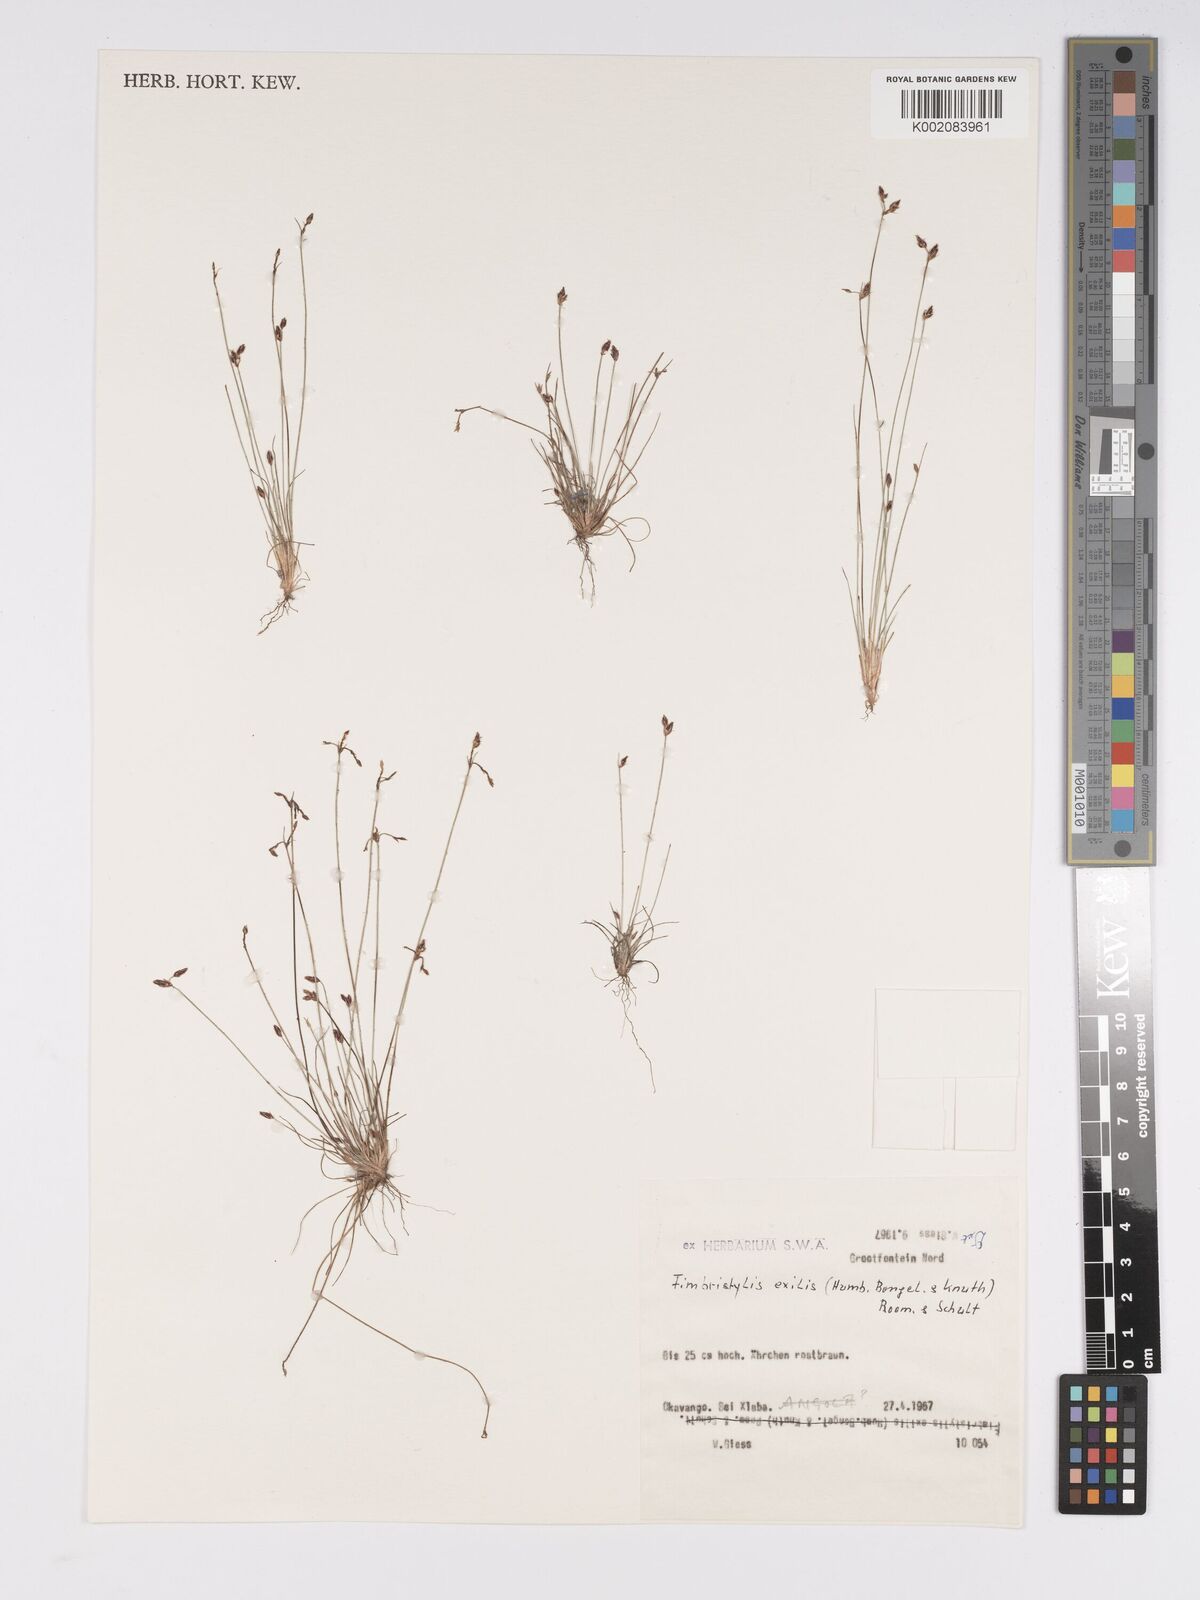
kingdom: Plantae
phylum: Tracheophyta
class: Liliopsida
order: Poales
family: Cyperaceae
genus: Bulbostylis
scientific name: Bulbostylis hispidula
